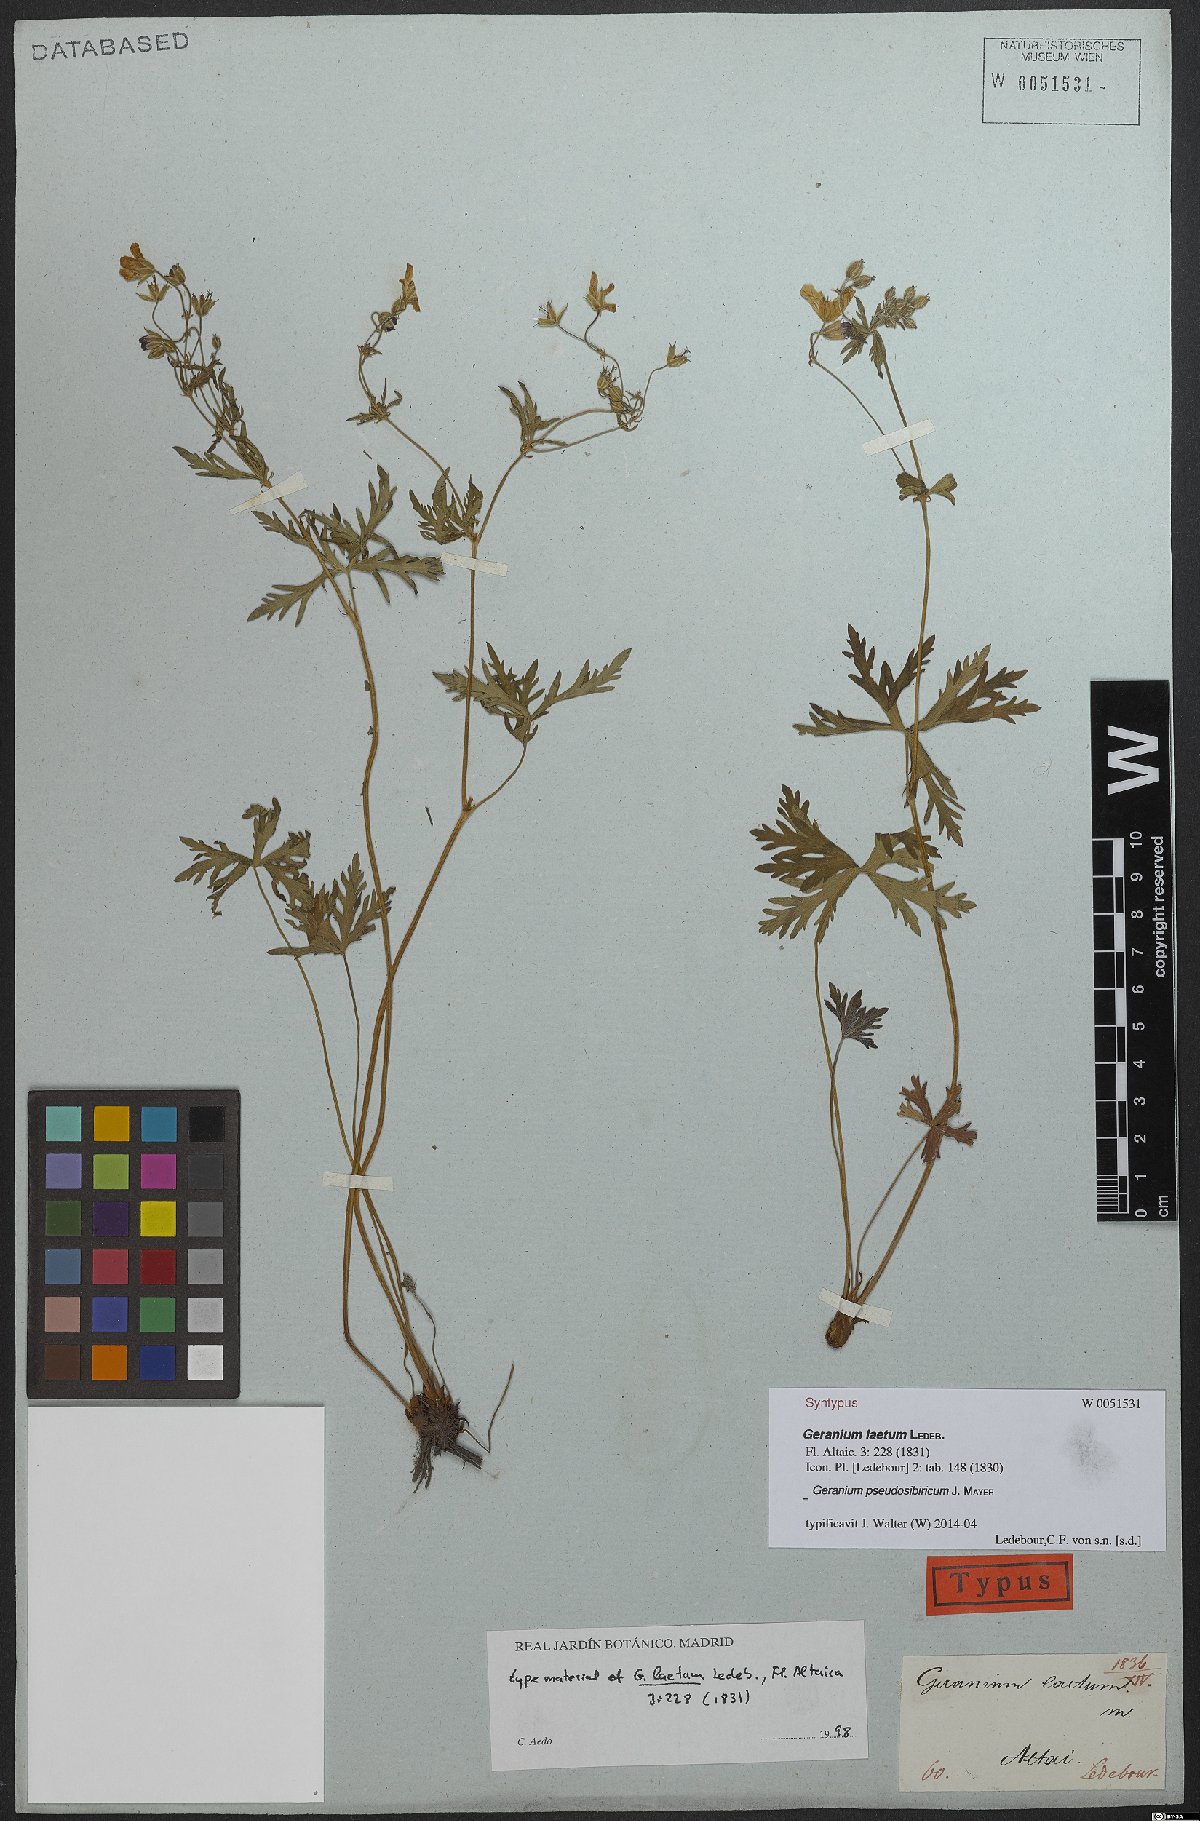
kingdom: Plantae
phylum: Tracheophyta
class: Magnoliopsida
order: Geraniales
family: Geraniaceae
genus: Geranium
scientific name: Geranium pseudosibiricum
